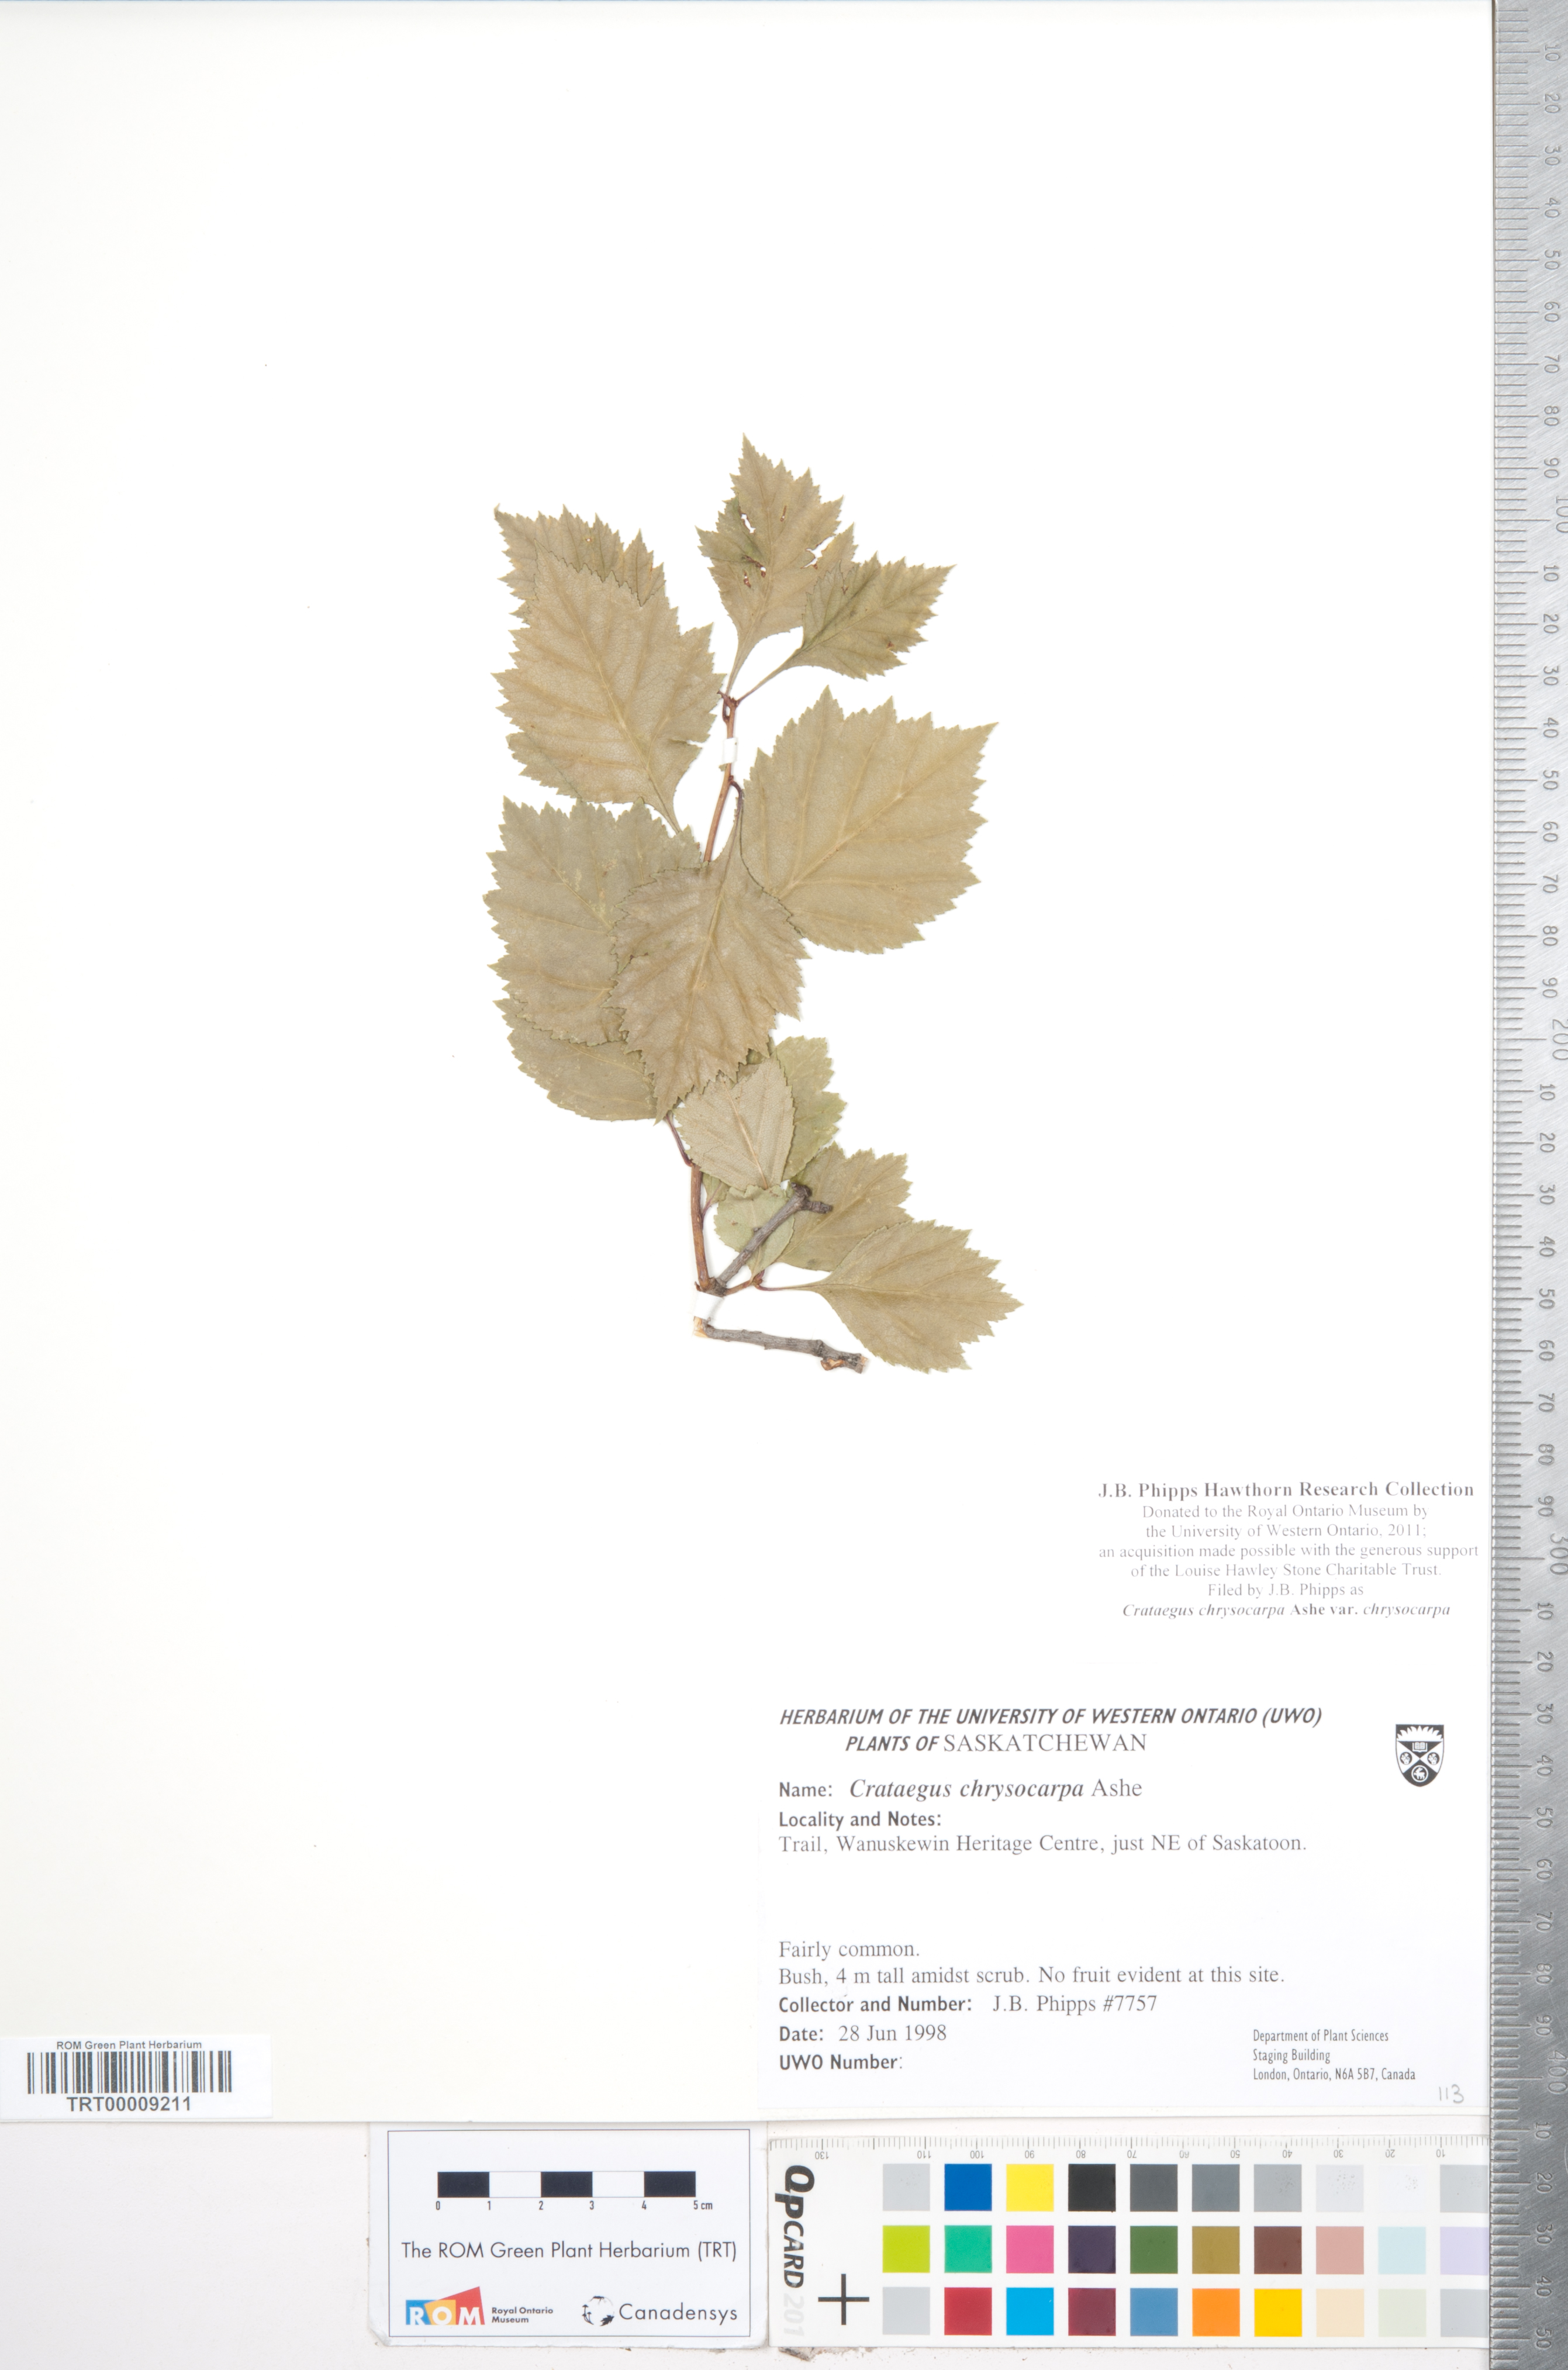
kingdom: Plantae
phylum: Tracheophyta
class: Magnoliopsida
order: Rosales
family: Rosaceae
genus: Crataegus
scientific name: Crataegus chrysocarpa
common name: Fire-berry hawthorn
